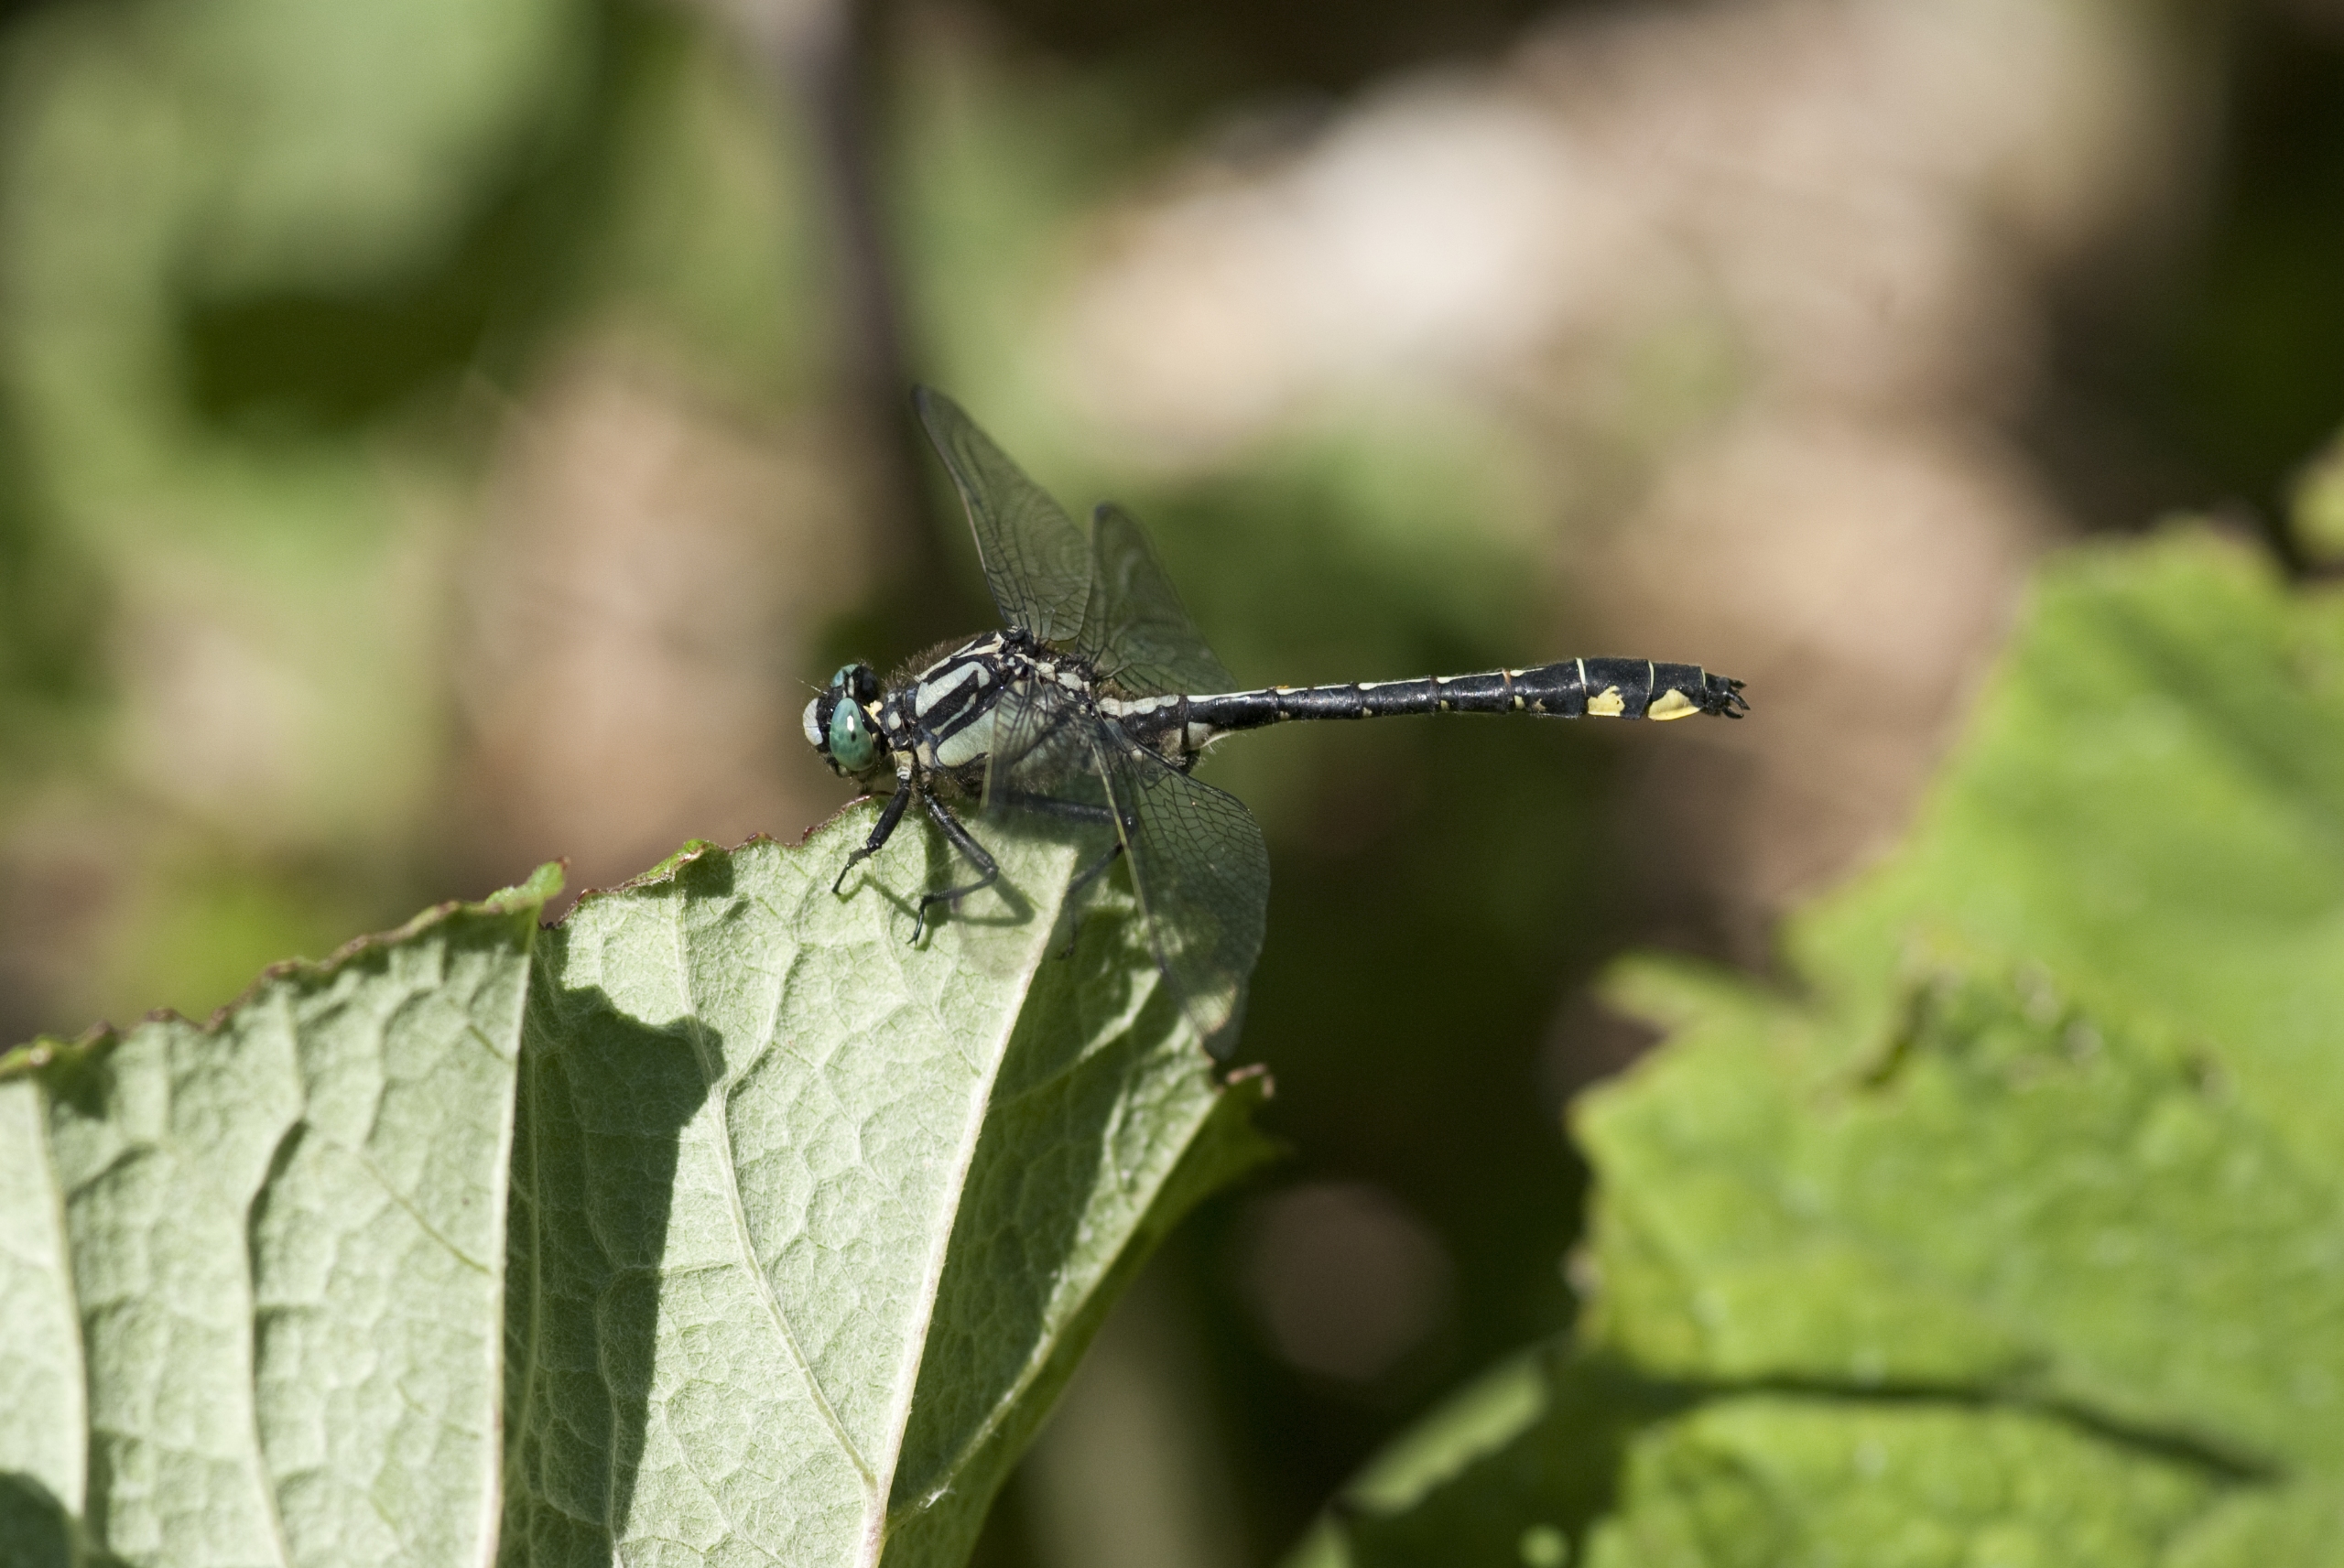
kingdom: Animalia
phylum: Arthropoda
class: Insecta
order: Odonata
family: Gomphidae
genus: Gomphus
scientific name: Gomphus vulgatissimus
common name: Almindelig flodguldsmed
